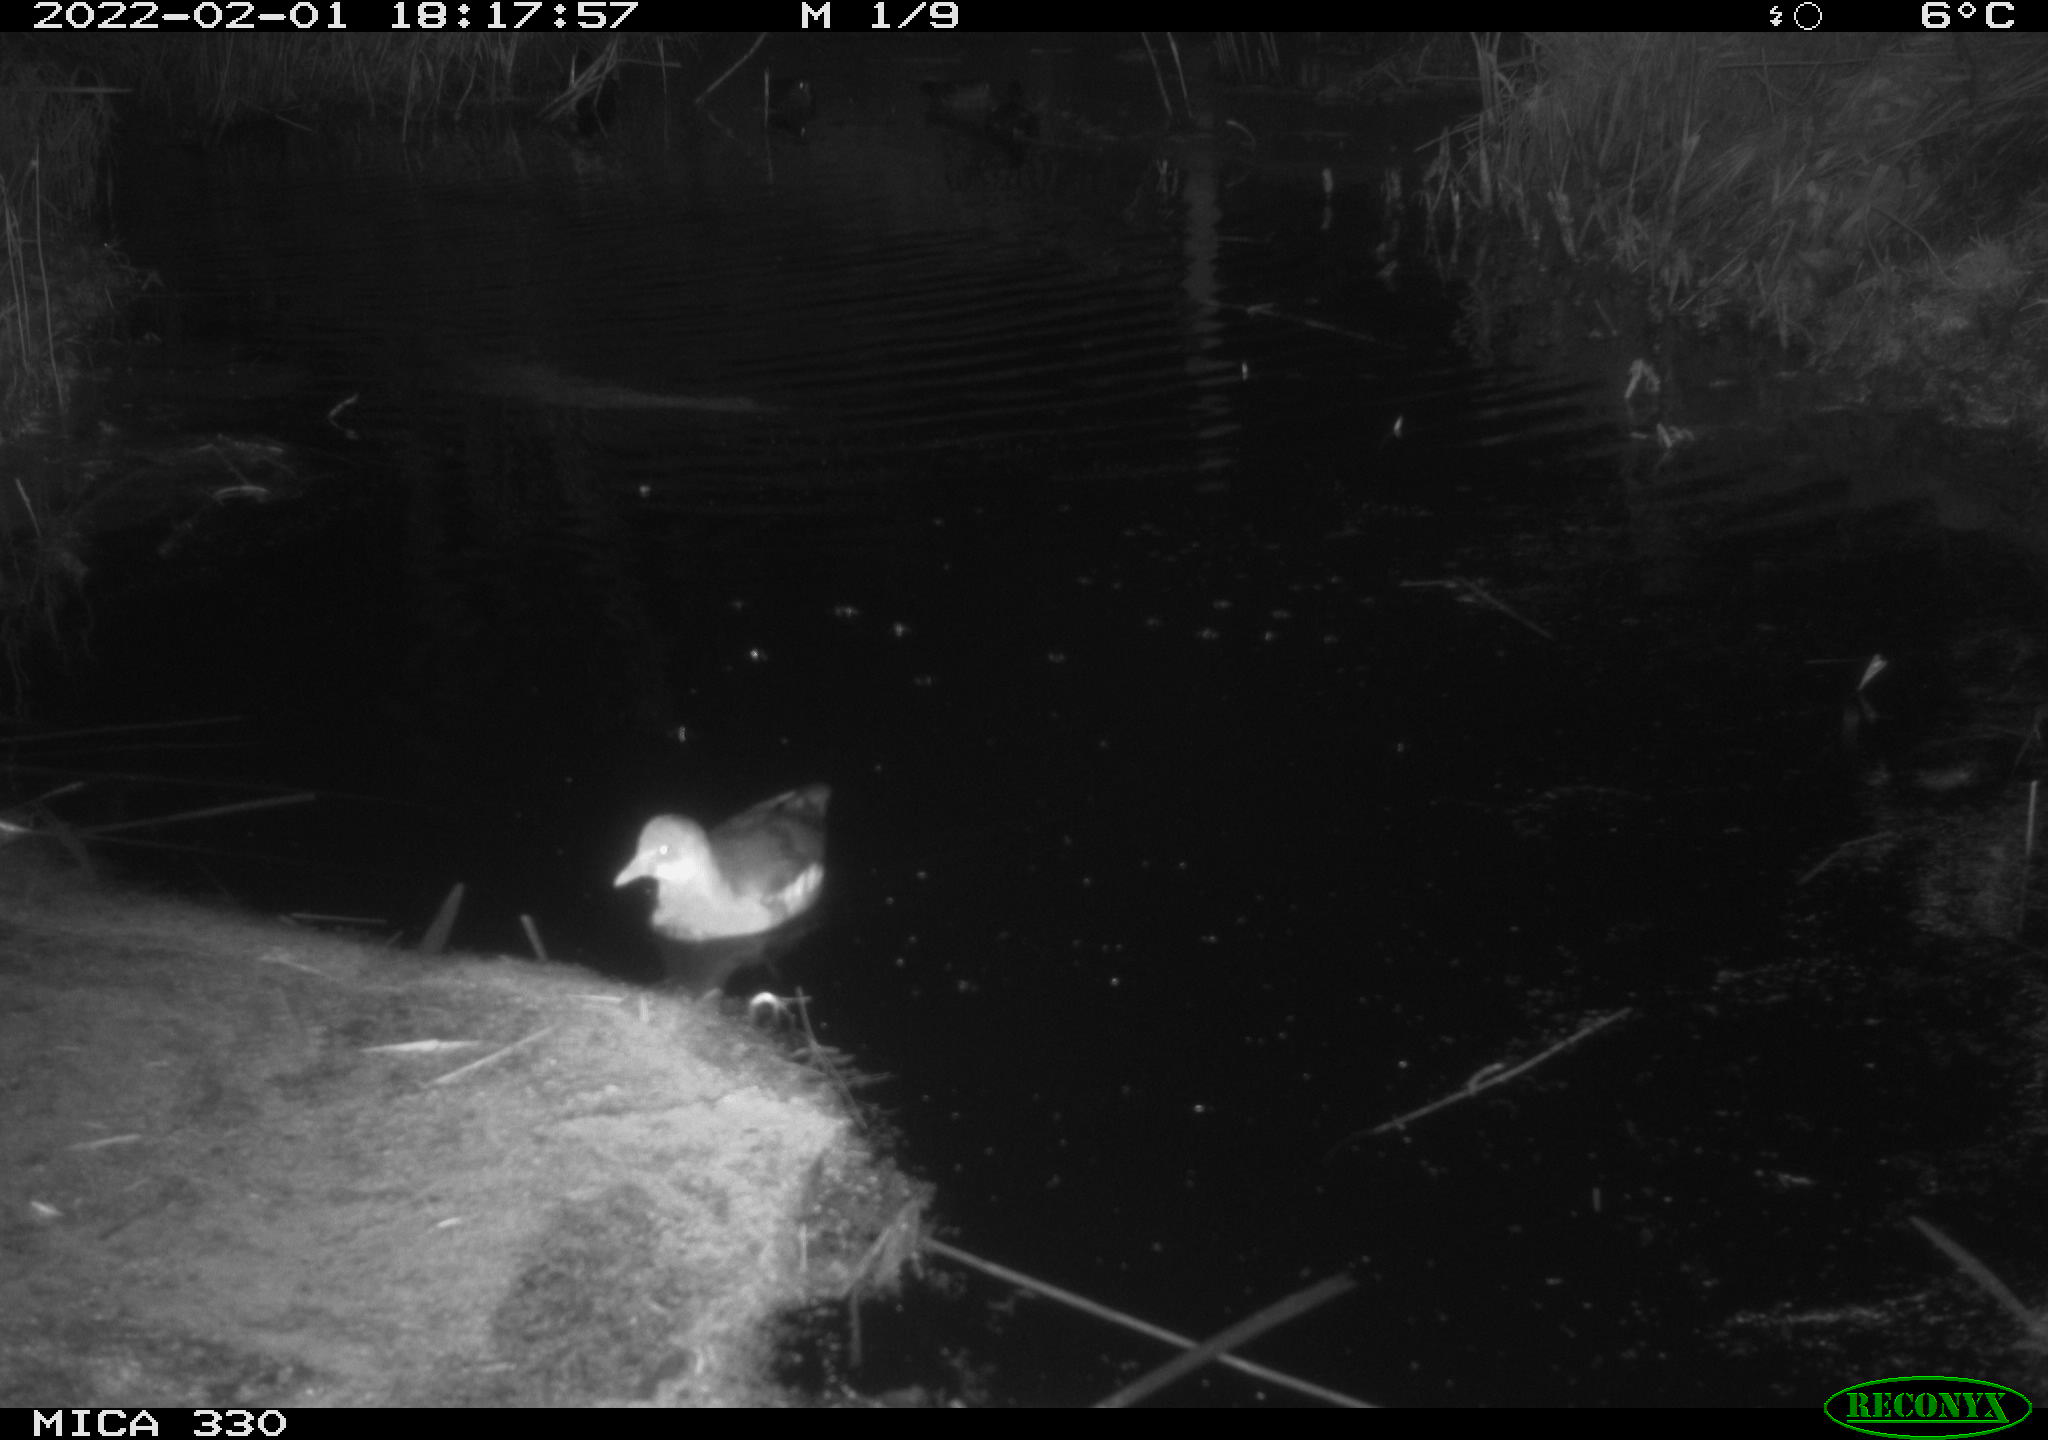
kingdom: Animalia
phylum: Chordata
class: Aves
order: Gruiformes
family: Rallidae
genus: Gallinula
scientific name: Gallinula chloropus
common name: Common moorhen
